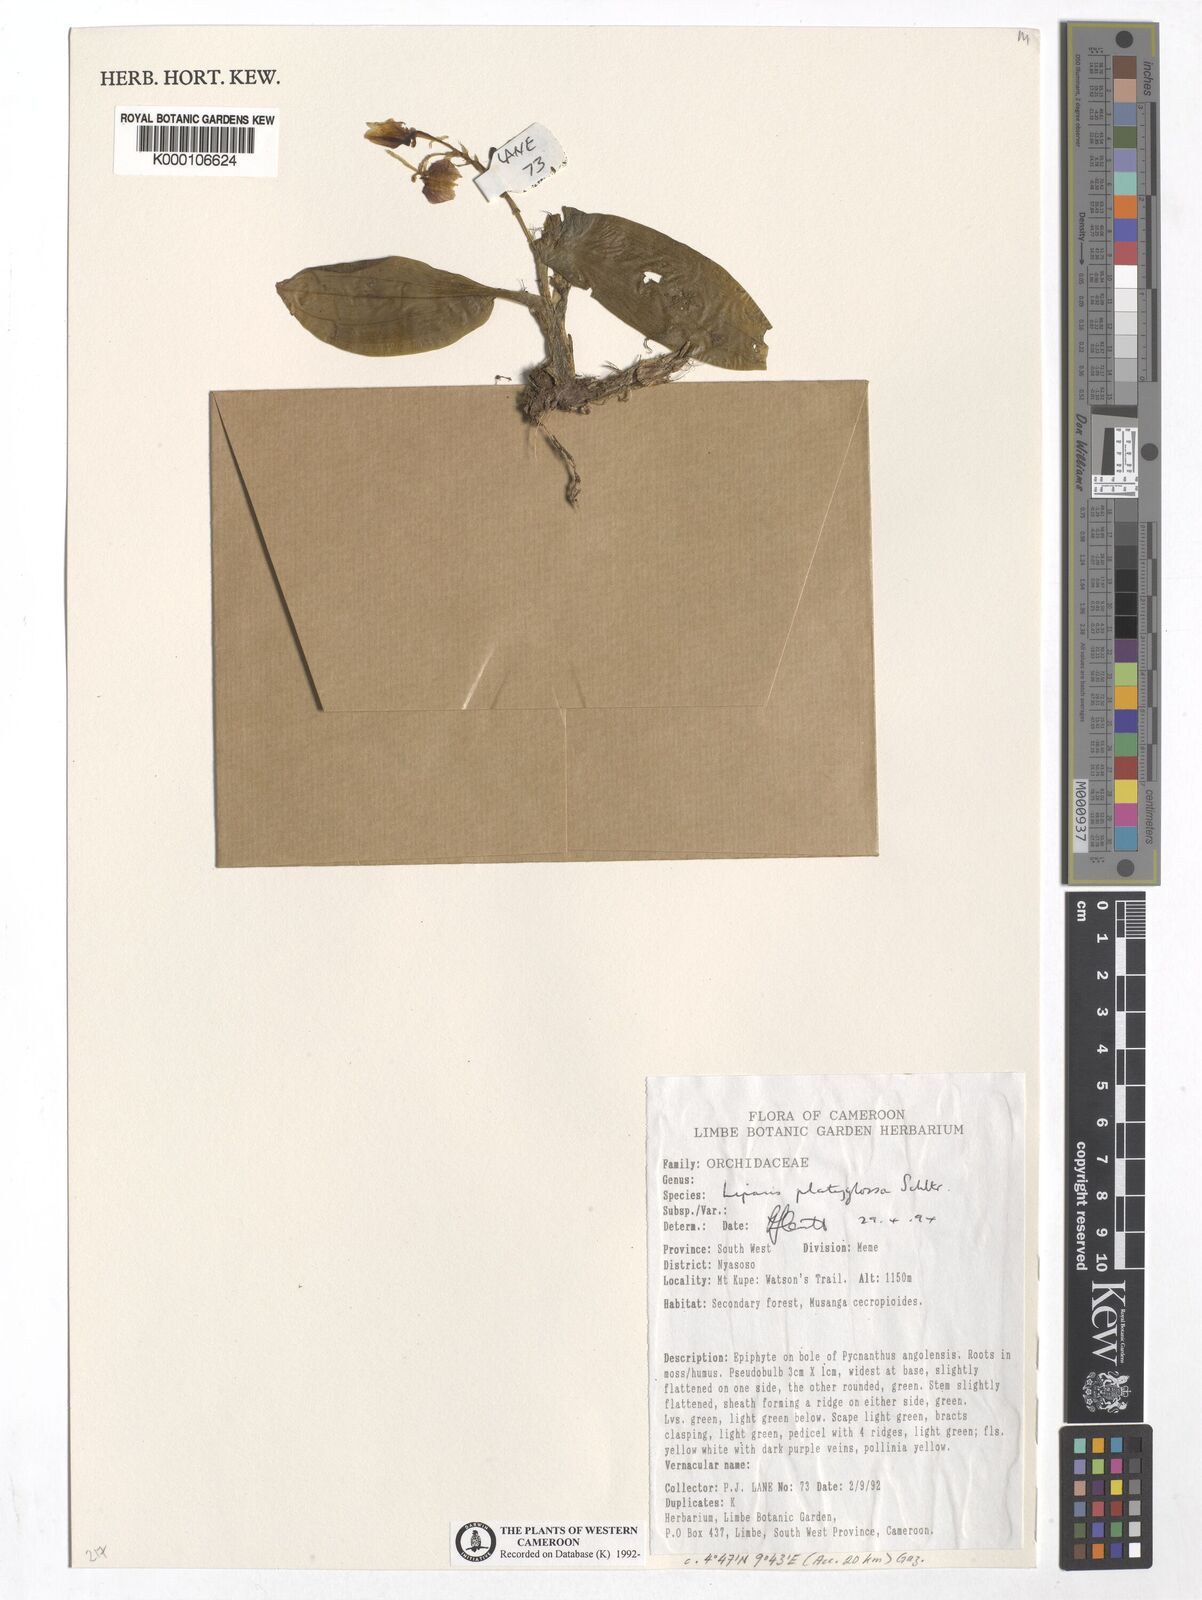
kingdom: Plantae
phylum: Tracheophyta
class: Liliopsida
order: Asparagales
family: Orchidaceae
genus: Liparis
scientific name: Liparis platyglossa
